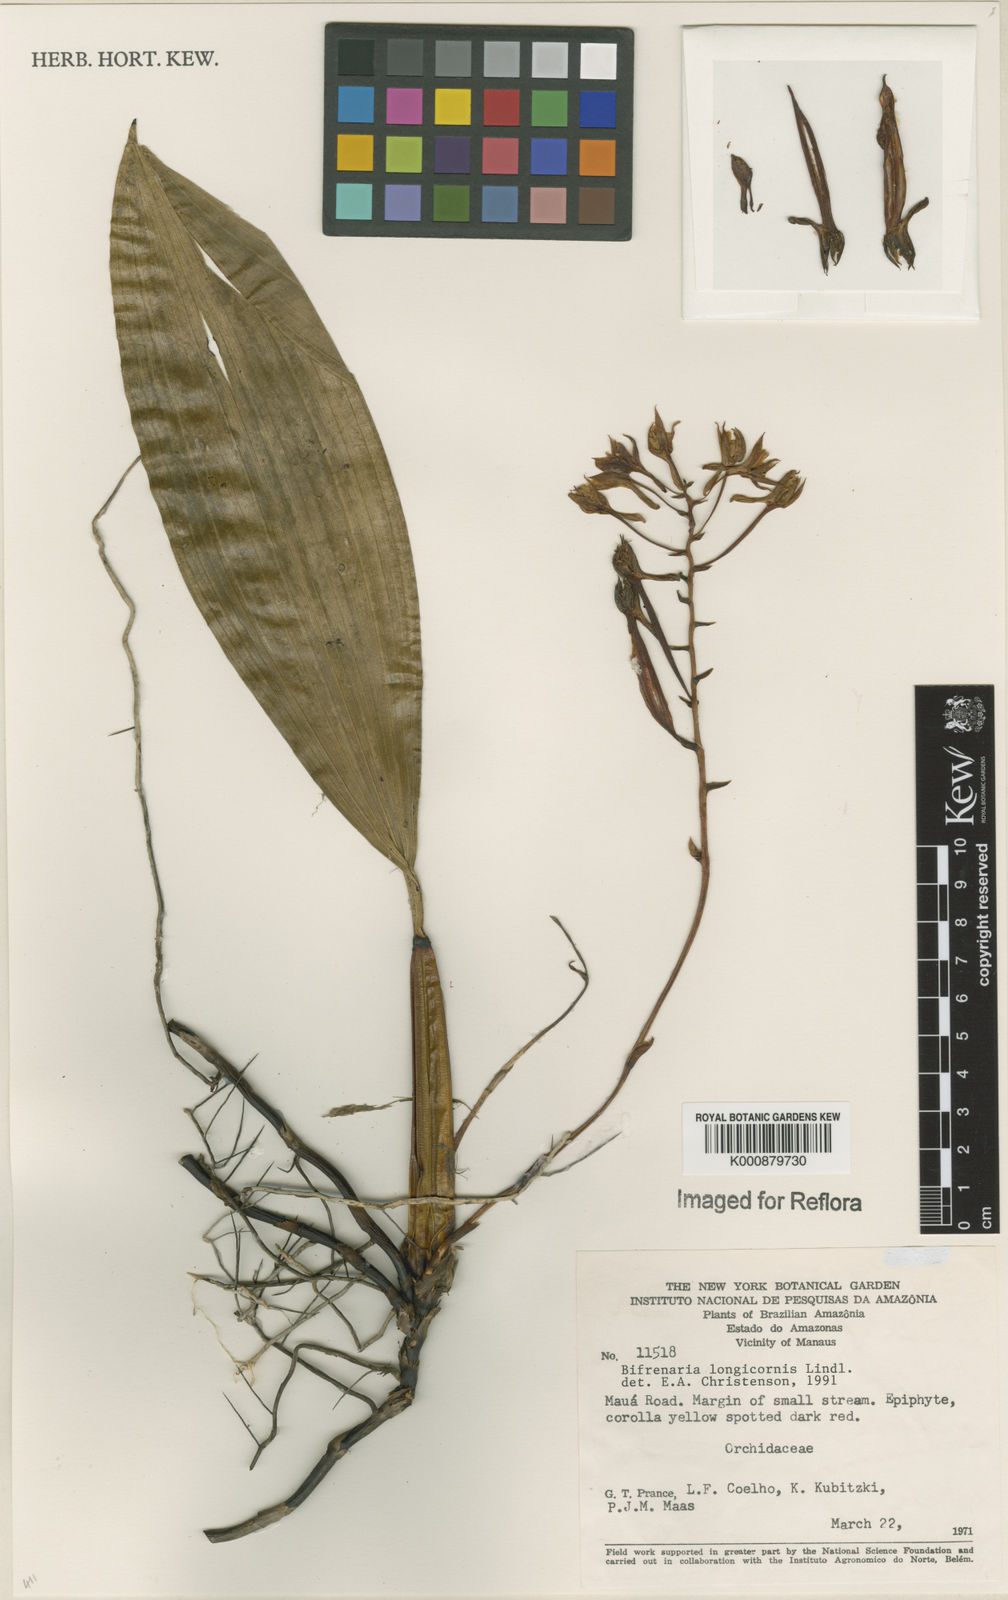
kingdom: Plantae
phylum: Tracheophyta
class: Liliopsida
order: Asparagales
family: Orchidaceae
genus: Bifrenaria
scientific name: Bifrenaria longicornis
